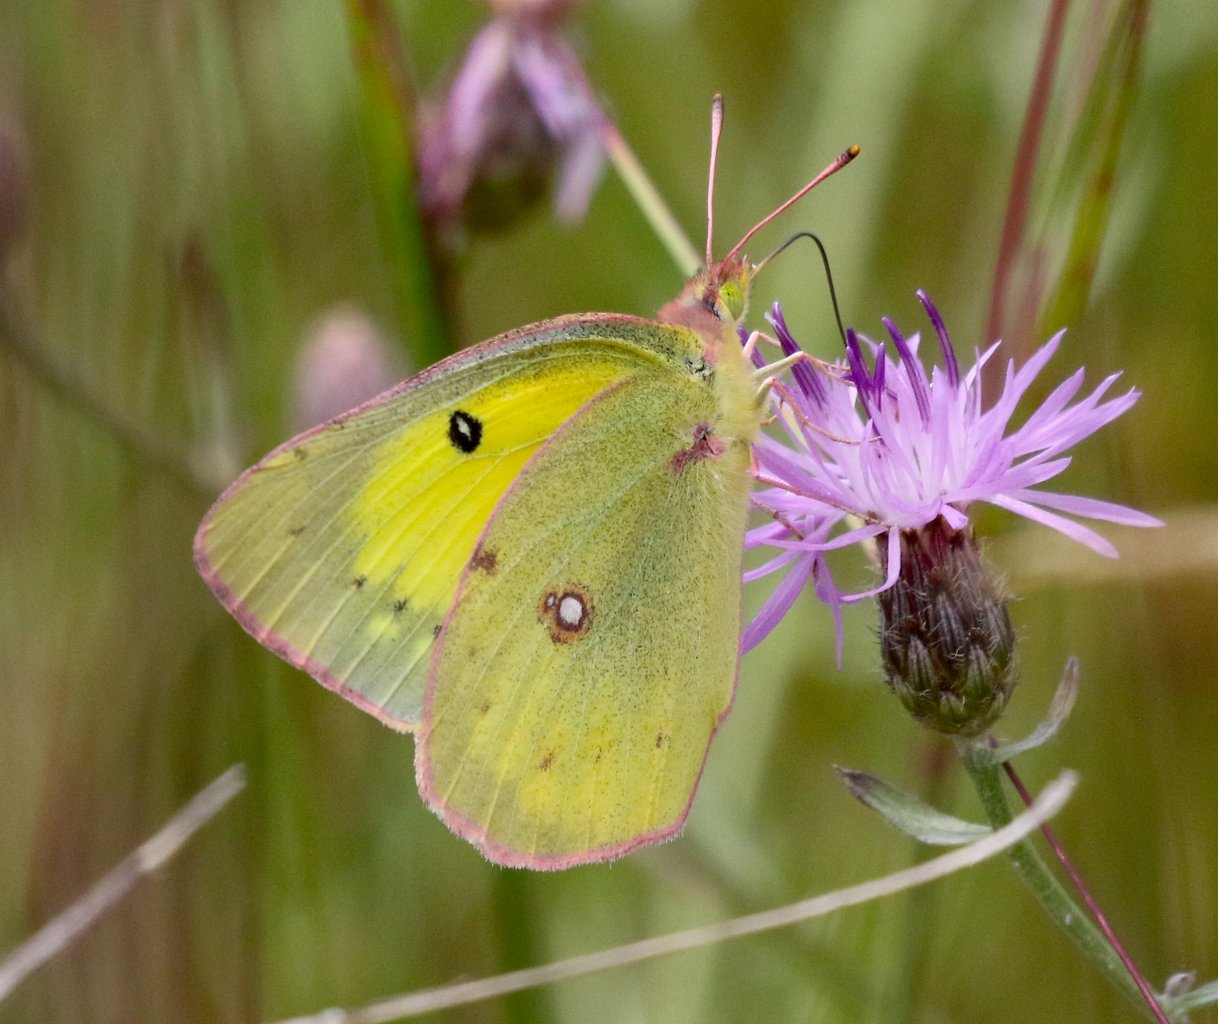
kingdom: Animalia
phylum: Arthropoda
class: Insecta
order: Lepidoptera
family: Pieridae
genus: Colias
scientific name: Colias philodice
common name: Clouded Sulphur
